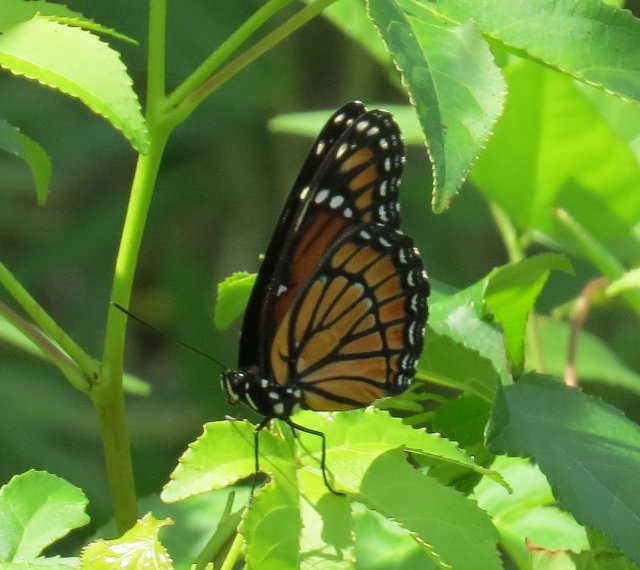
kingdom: Animalia
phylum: Arthropoda
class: Insecta
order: Lepidoptera
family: Nymphalidae
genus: Limenitis
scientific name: Limenitis archippus
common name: Viceroy
